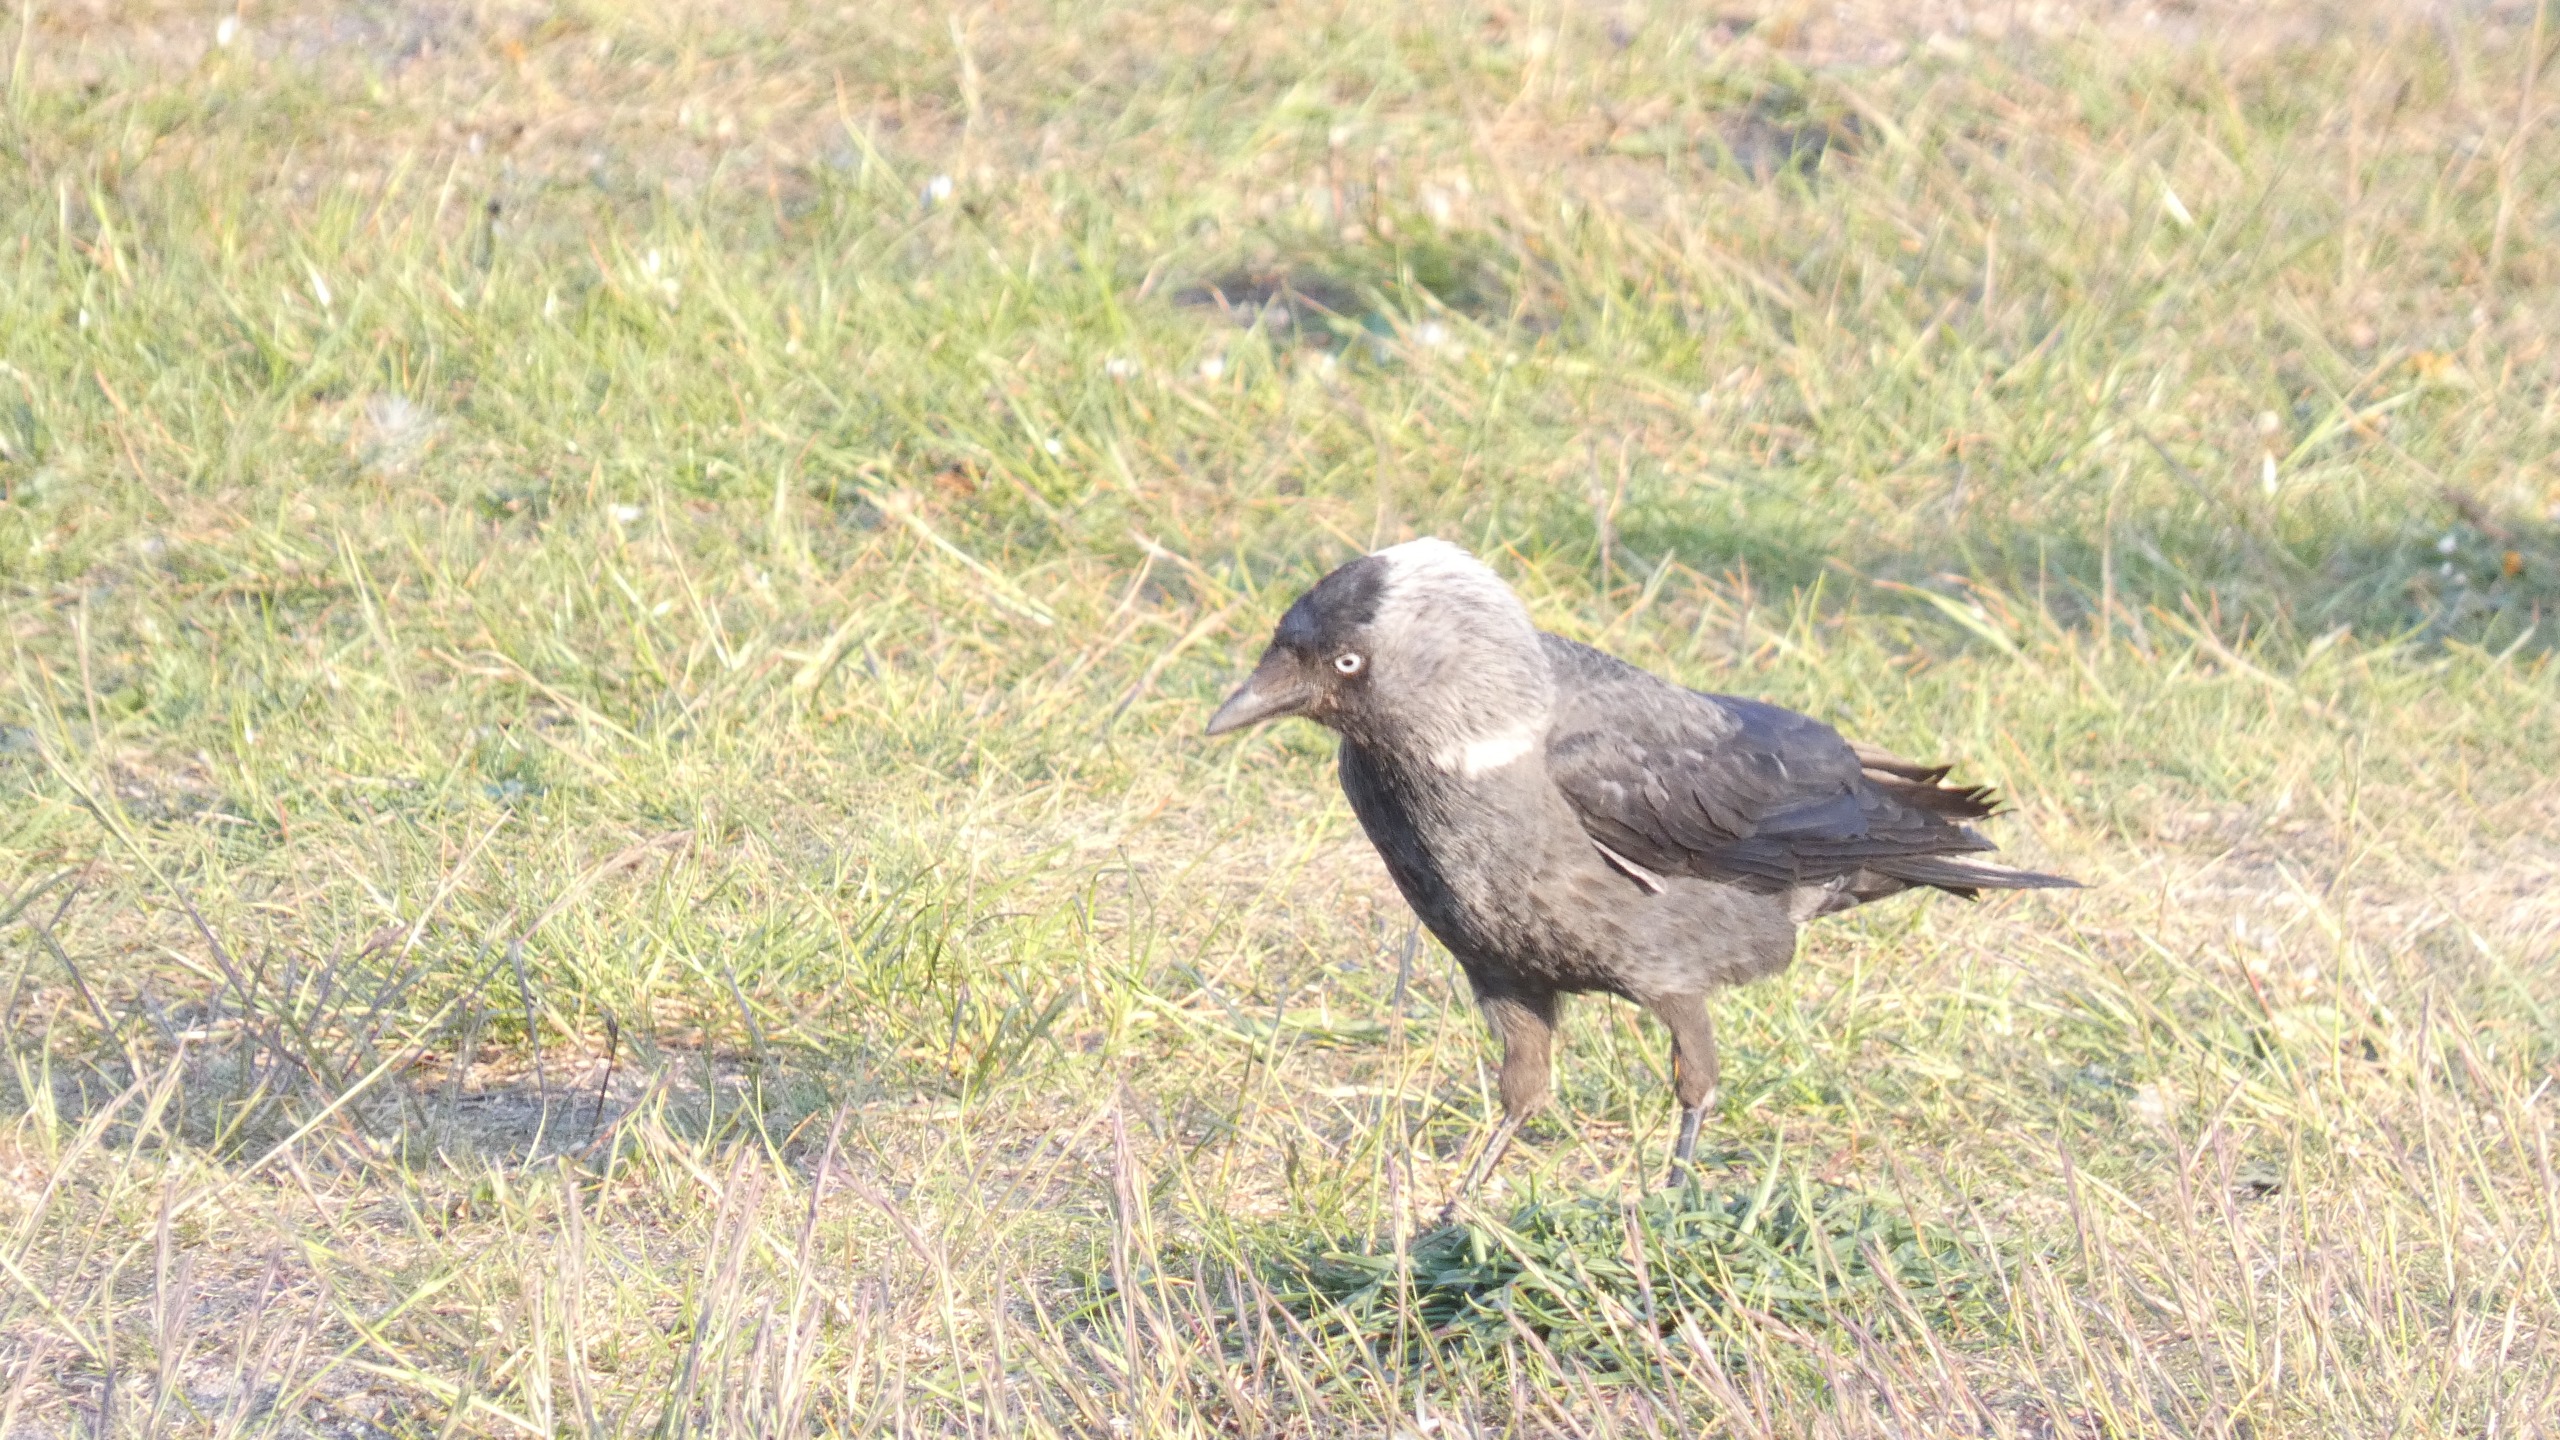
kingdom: Animalia
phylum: Chordata
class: Aves
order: Passeriformes
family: Corvidae
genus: Coloeus
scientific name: Coloeus monedula
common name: Allike
